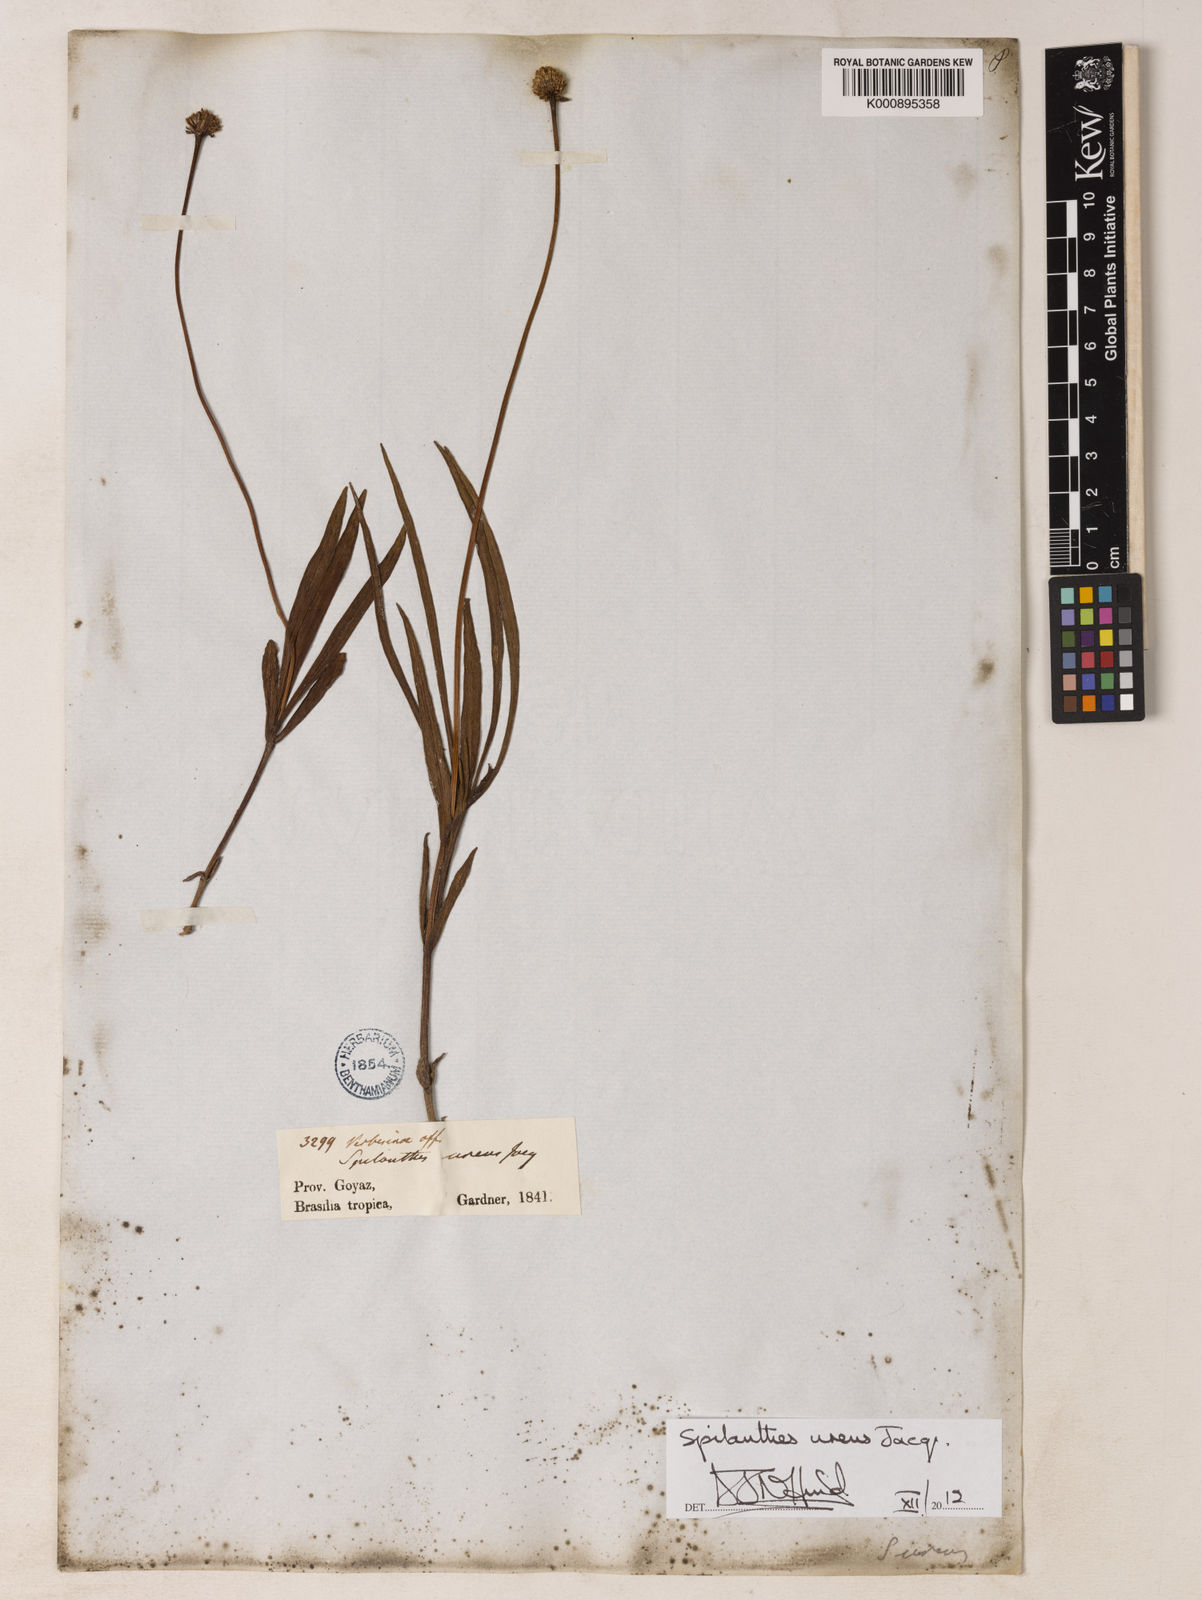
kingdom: Plantae
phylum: Tracheophyta
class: Magnoliopsida
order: Asterales
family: Asteraceae
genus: Spilanthes
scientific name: Spilanthes
